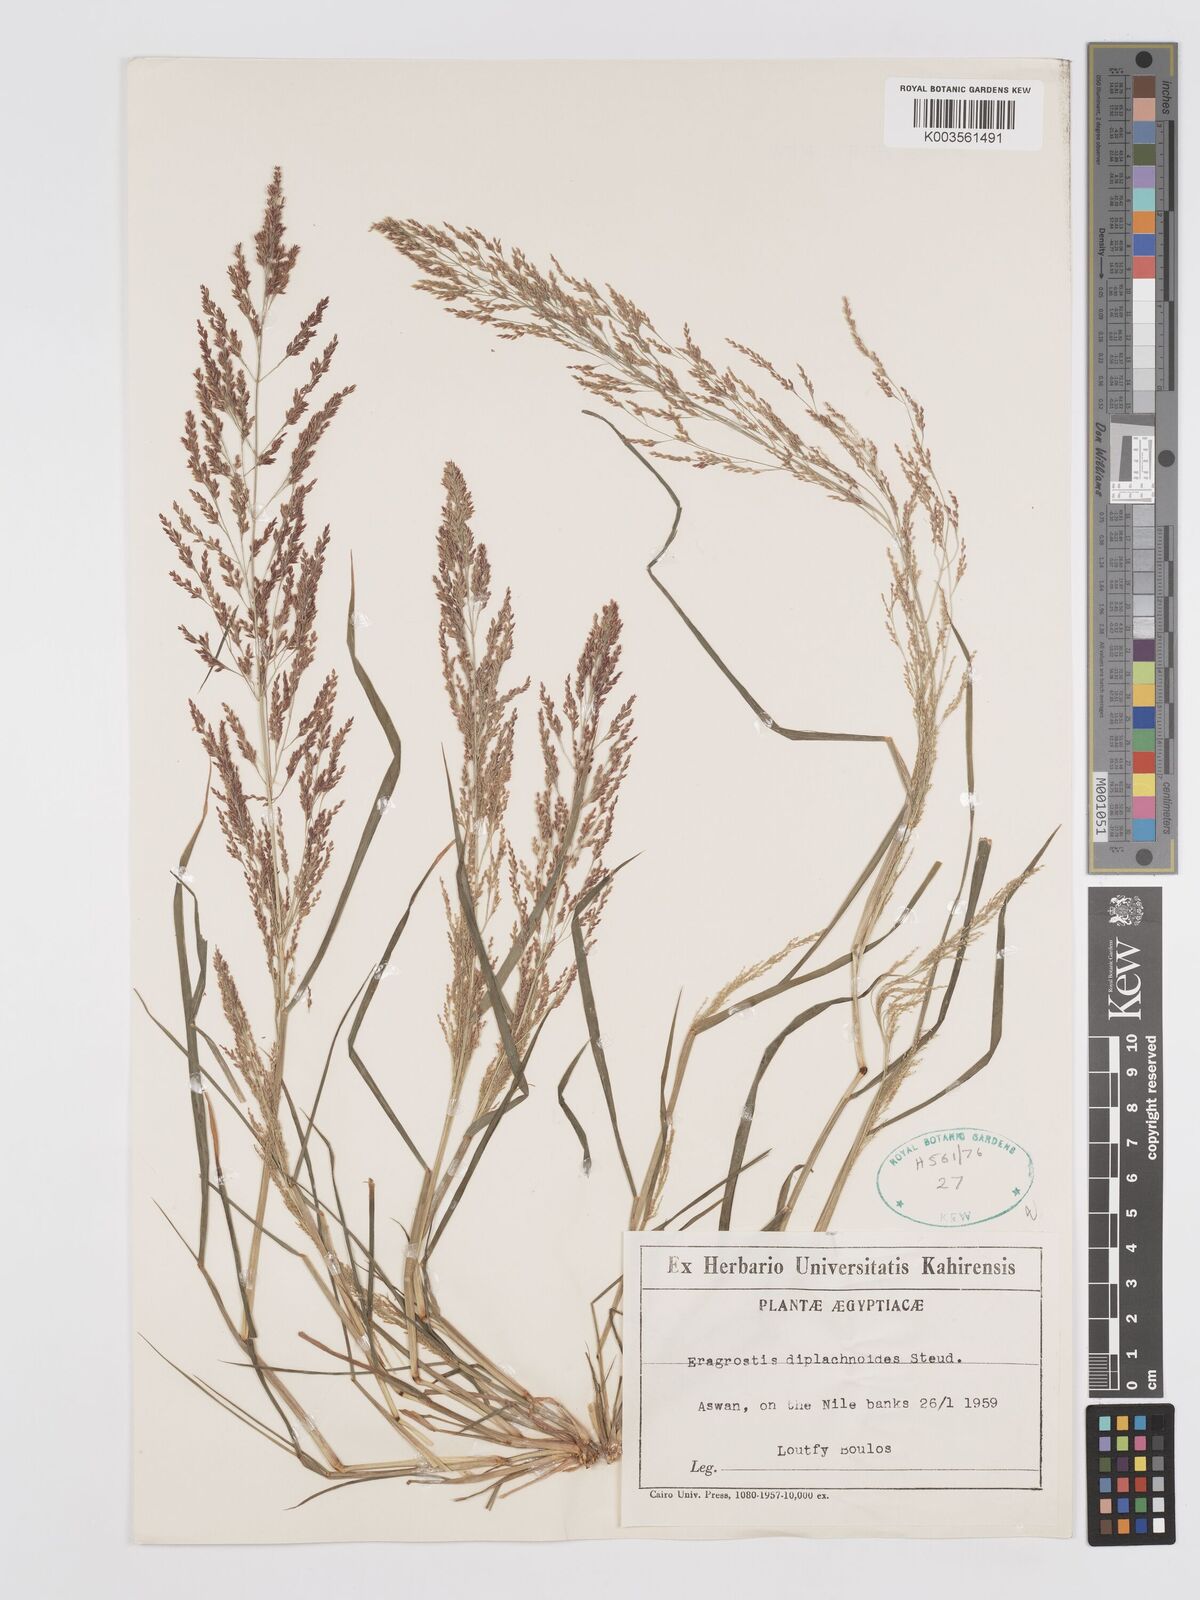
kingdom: Plantae
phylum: Tracheophyta
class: Liliopsida
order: Poales
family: Poaceae
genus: Eragrostis
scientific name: Eragrostis japonica
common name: Pond lovegrass
